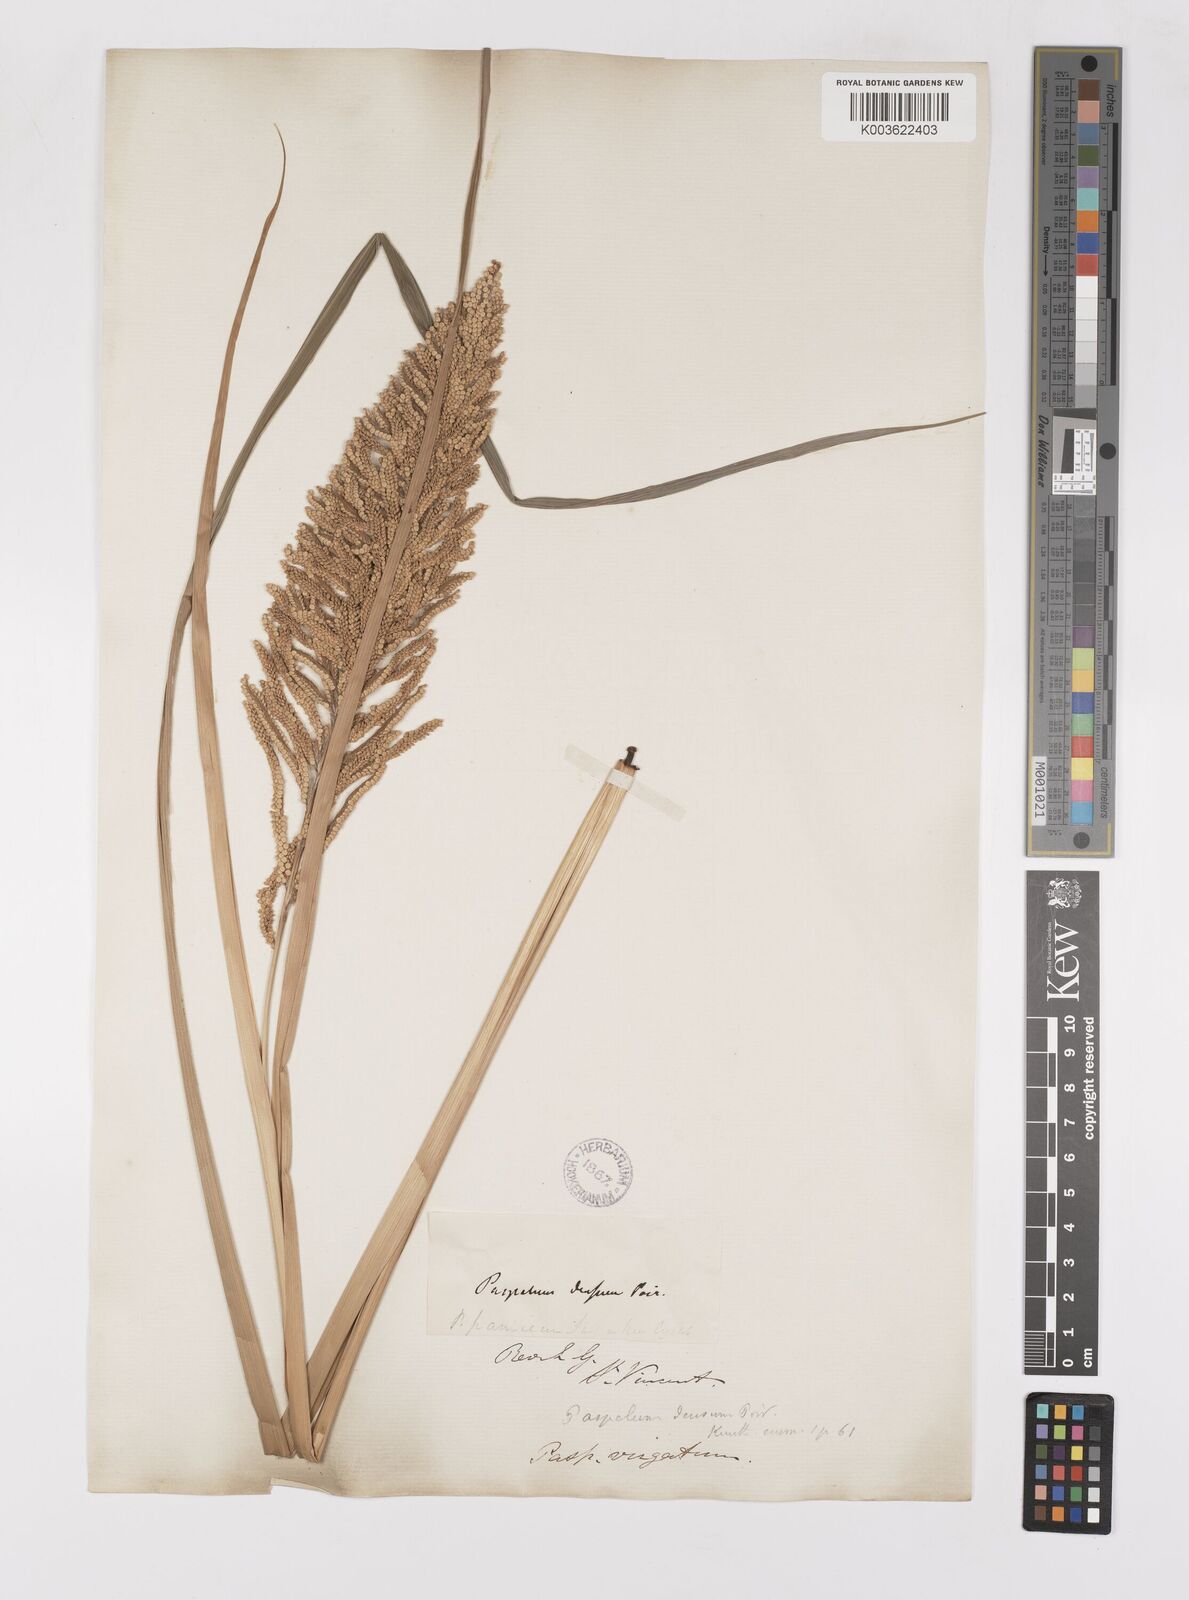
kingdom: Plantae
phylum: Tracheophyta
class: Liliopsida
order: Poales
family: Poaceae
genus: Paspalum
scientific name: Paspalum densum
